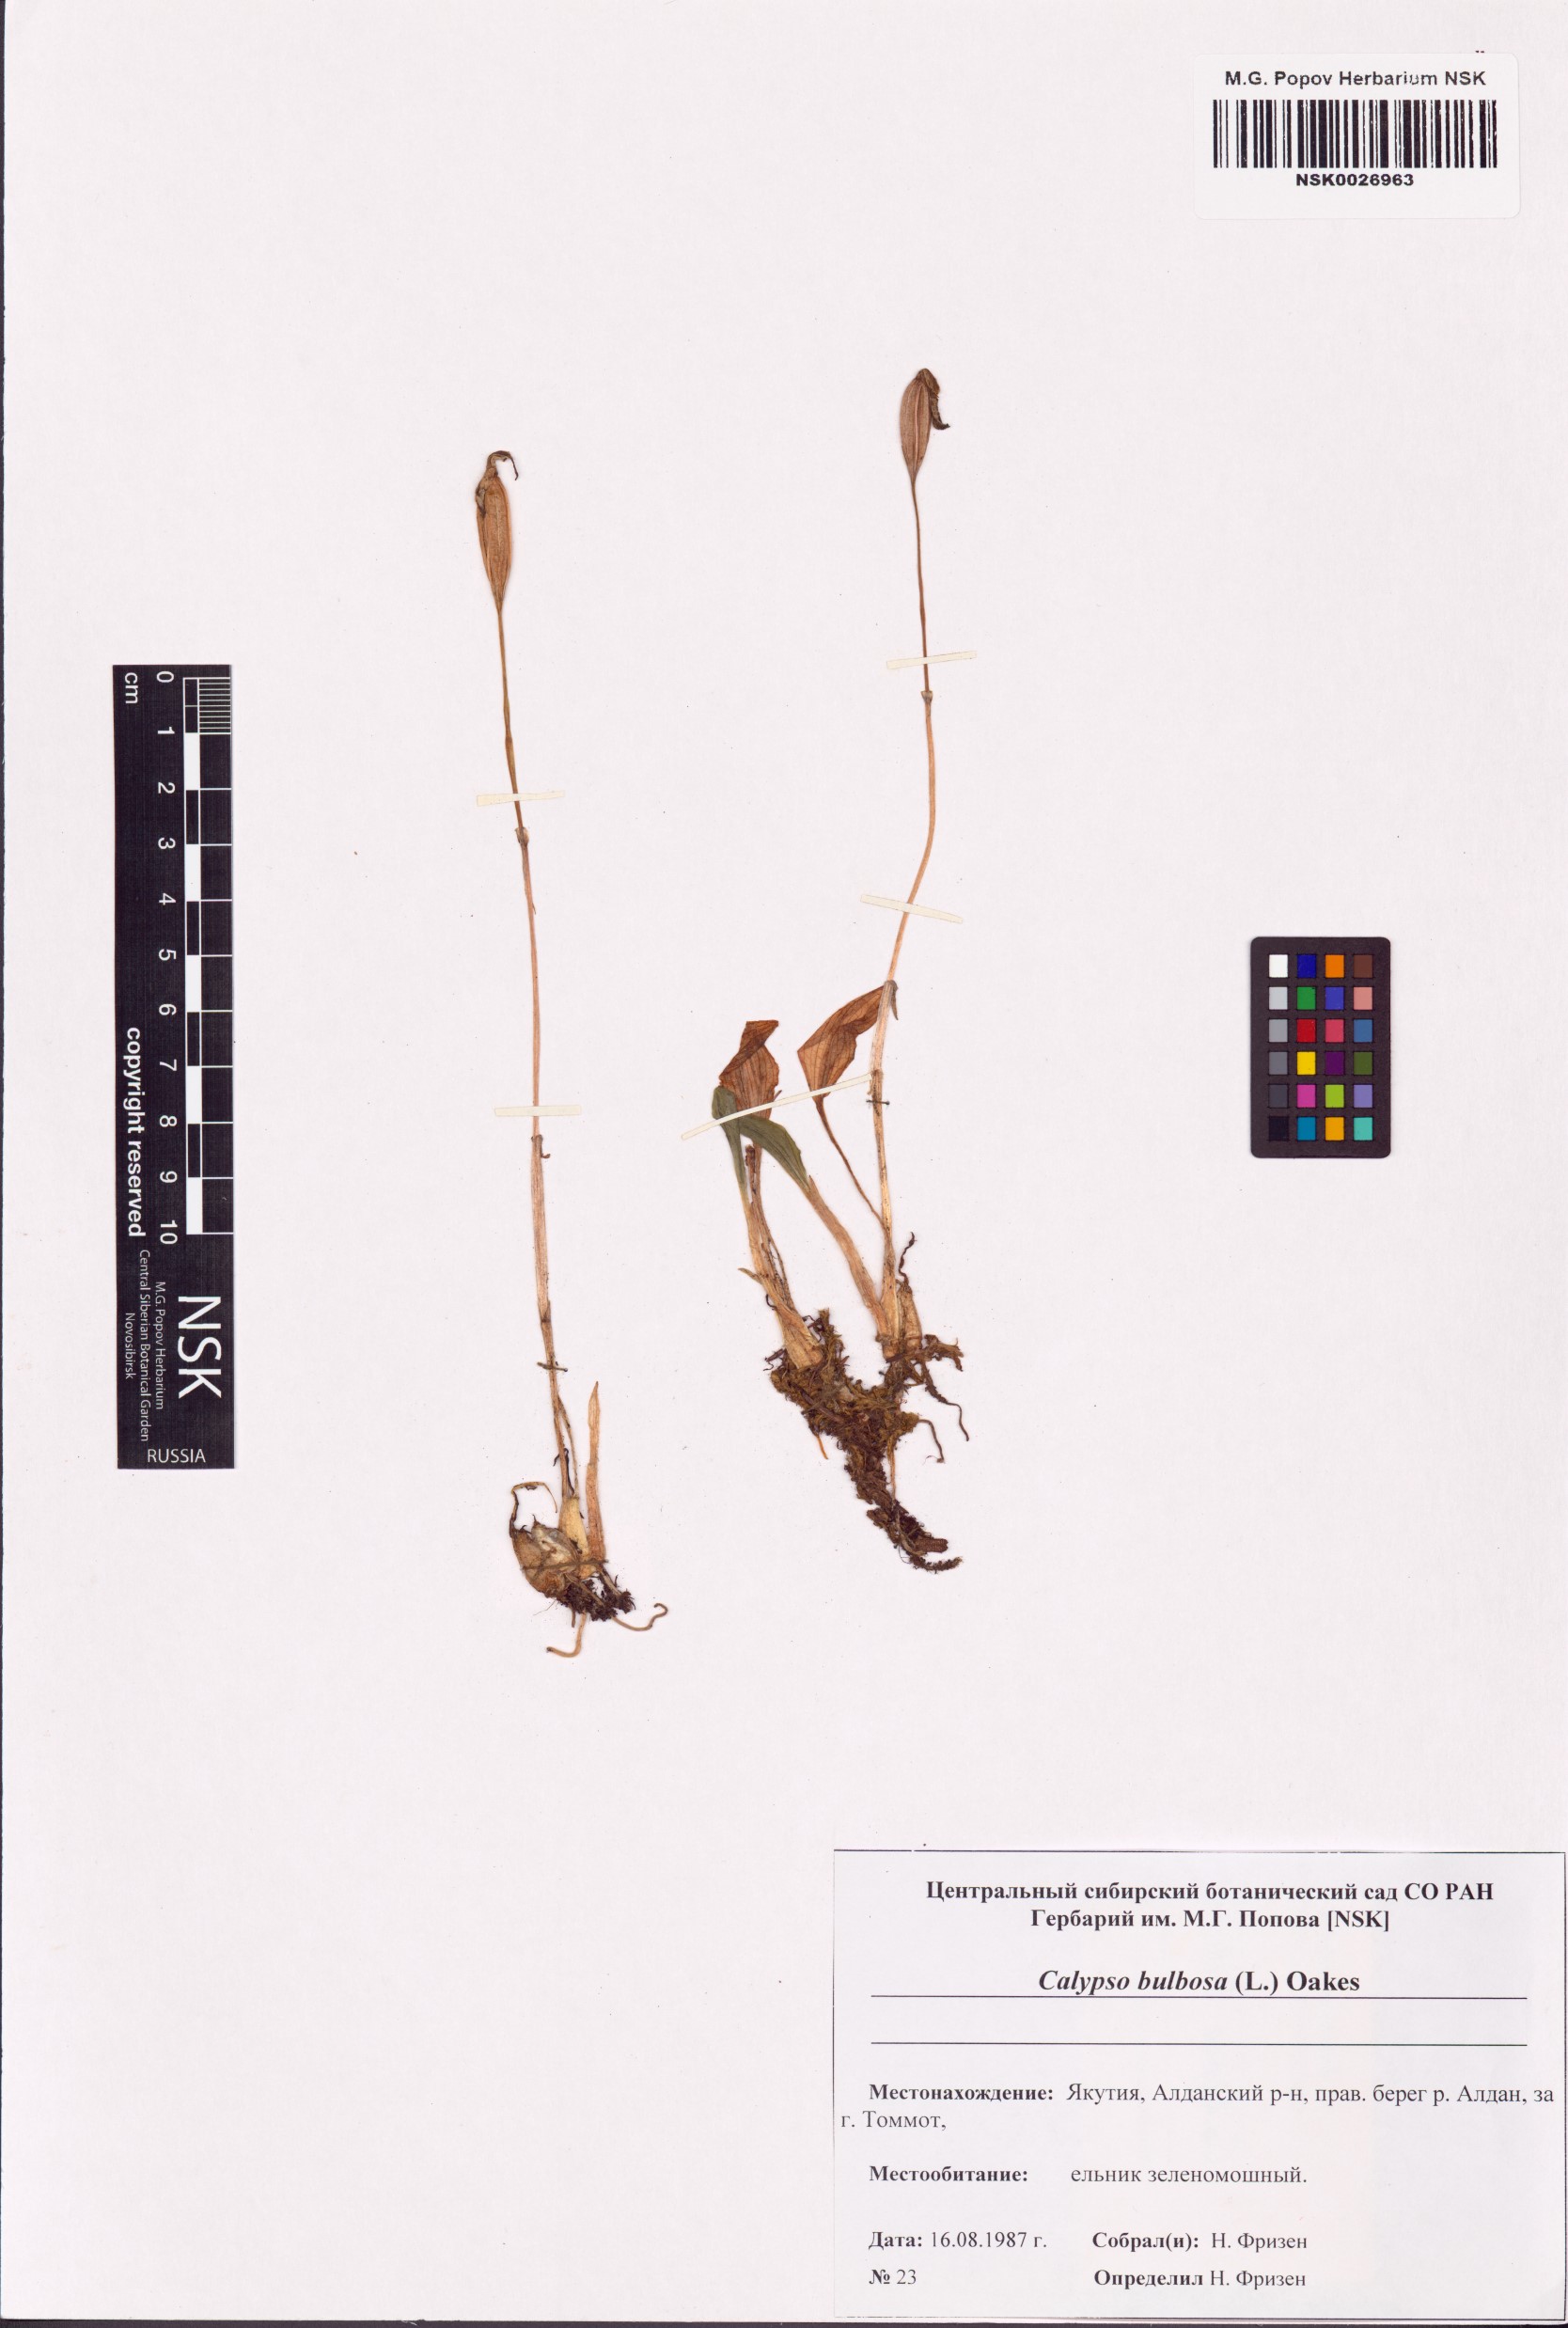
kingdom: Plantae
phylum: Tracheophyta
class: Liliopsida
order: Asparagales
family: Orchidaceae
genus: Calypso
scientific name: Calypso bulbosa
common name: Calypso
